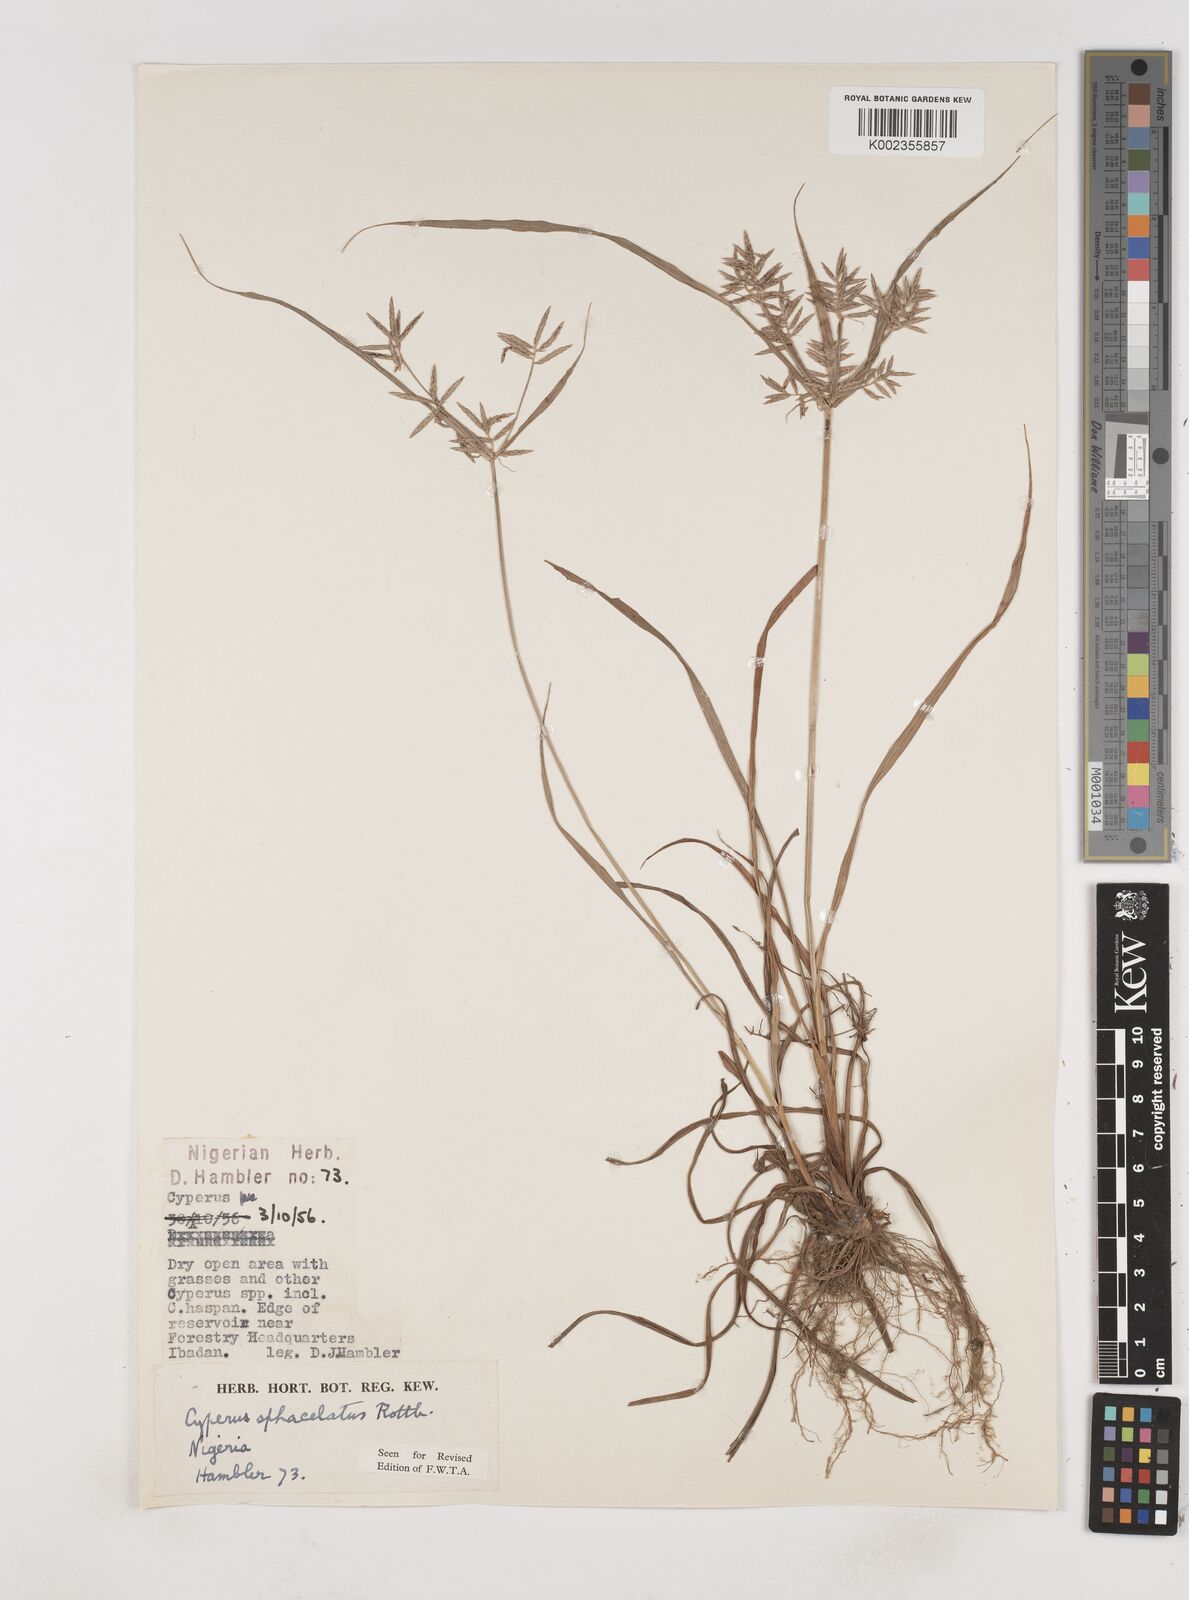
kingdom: Plantae
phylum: Tracheophyta
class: Liliopsida
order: Poales
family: Cyperaceae
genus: Cyperus
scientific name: Cyperus sphacelatus
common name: Roadside flatsedge
